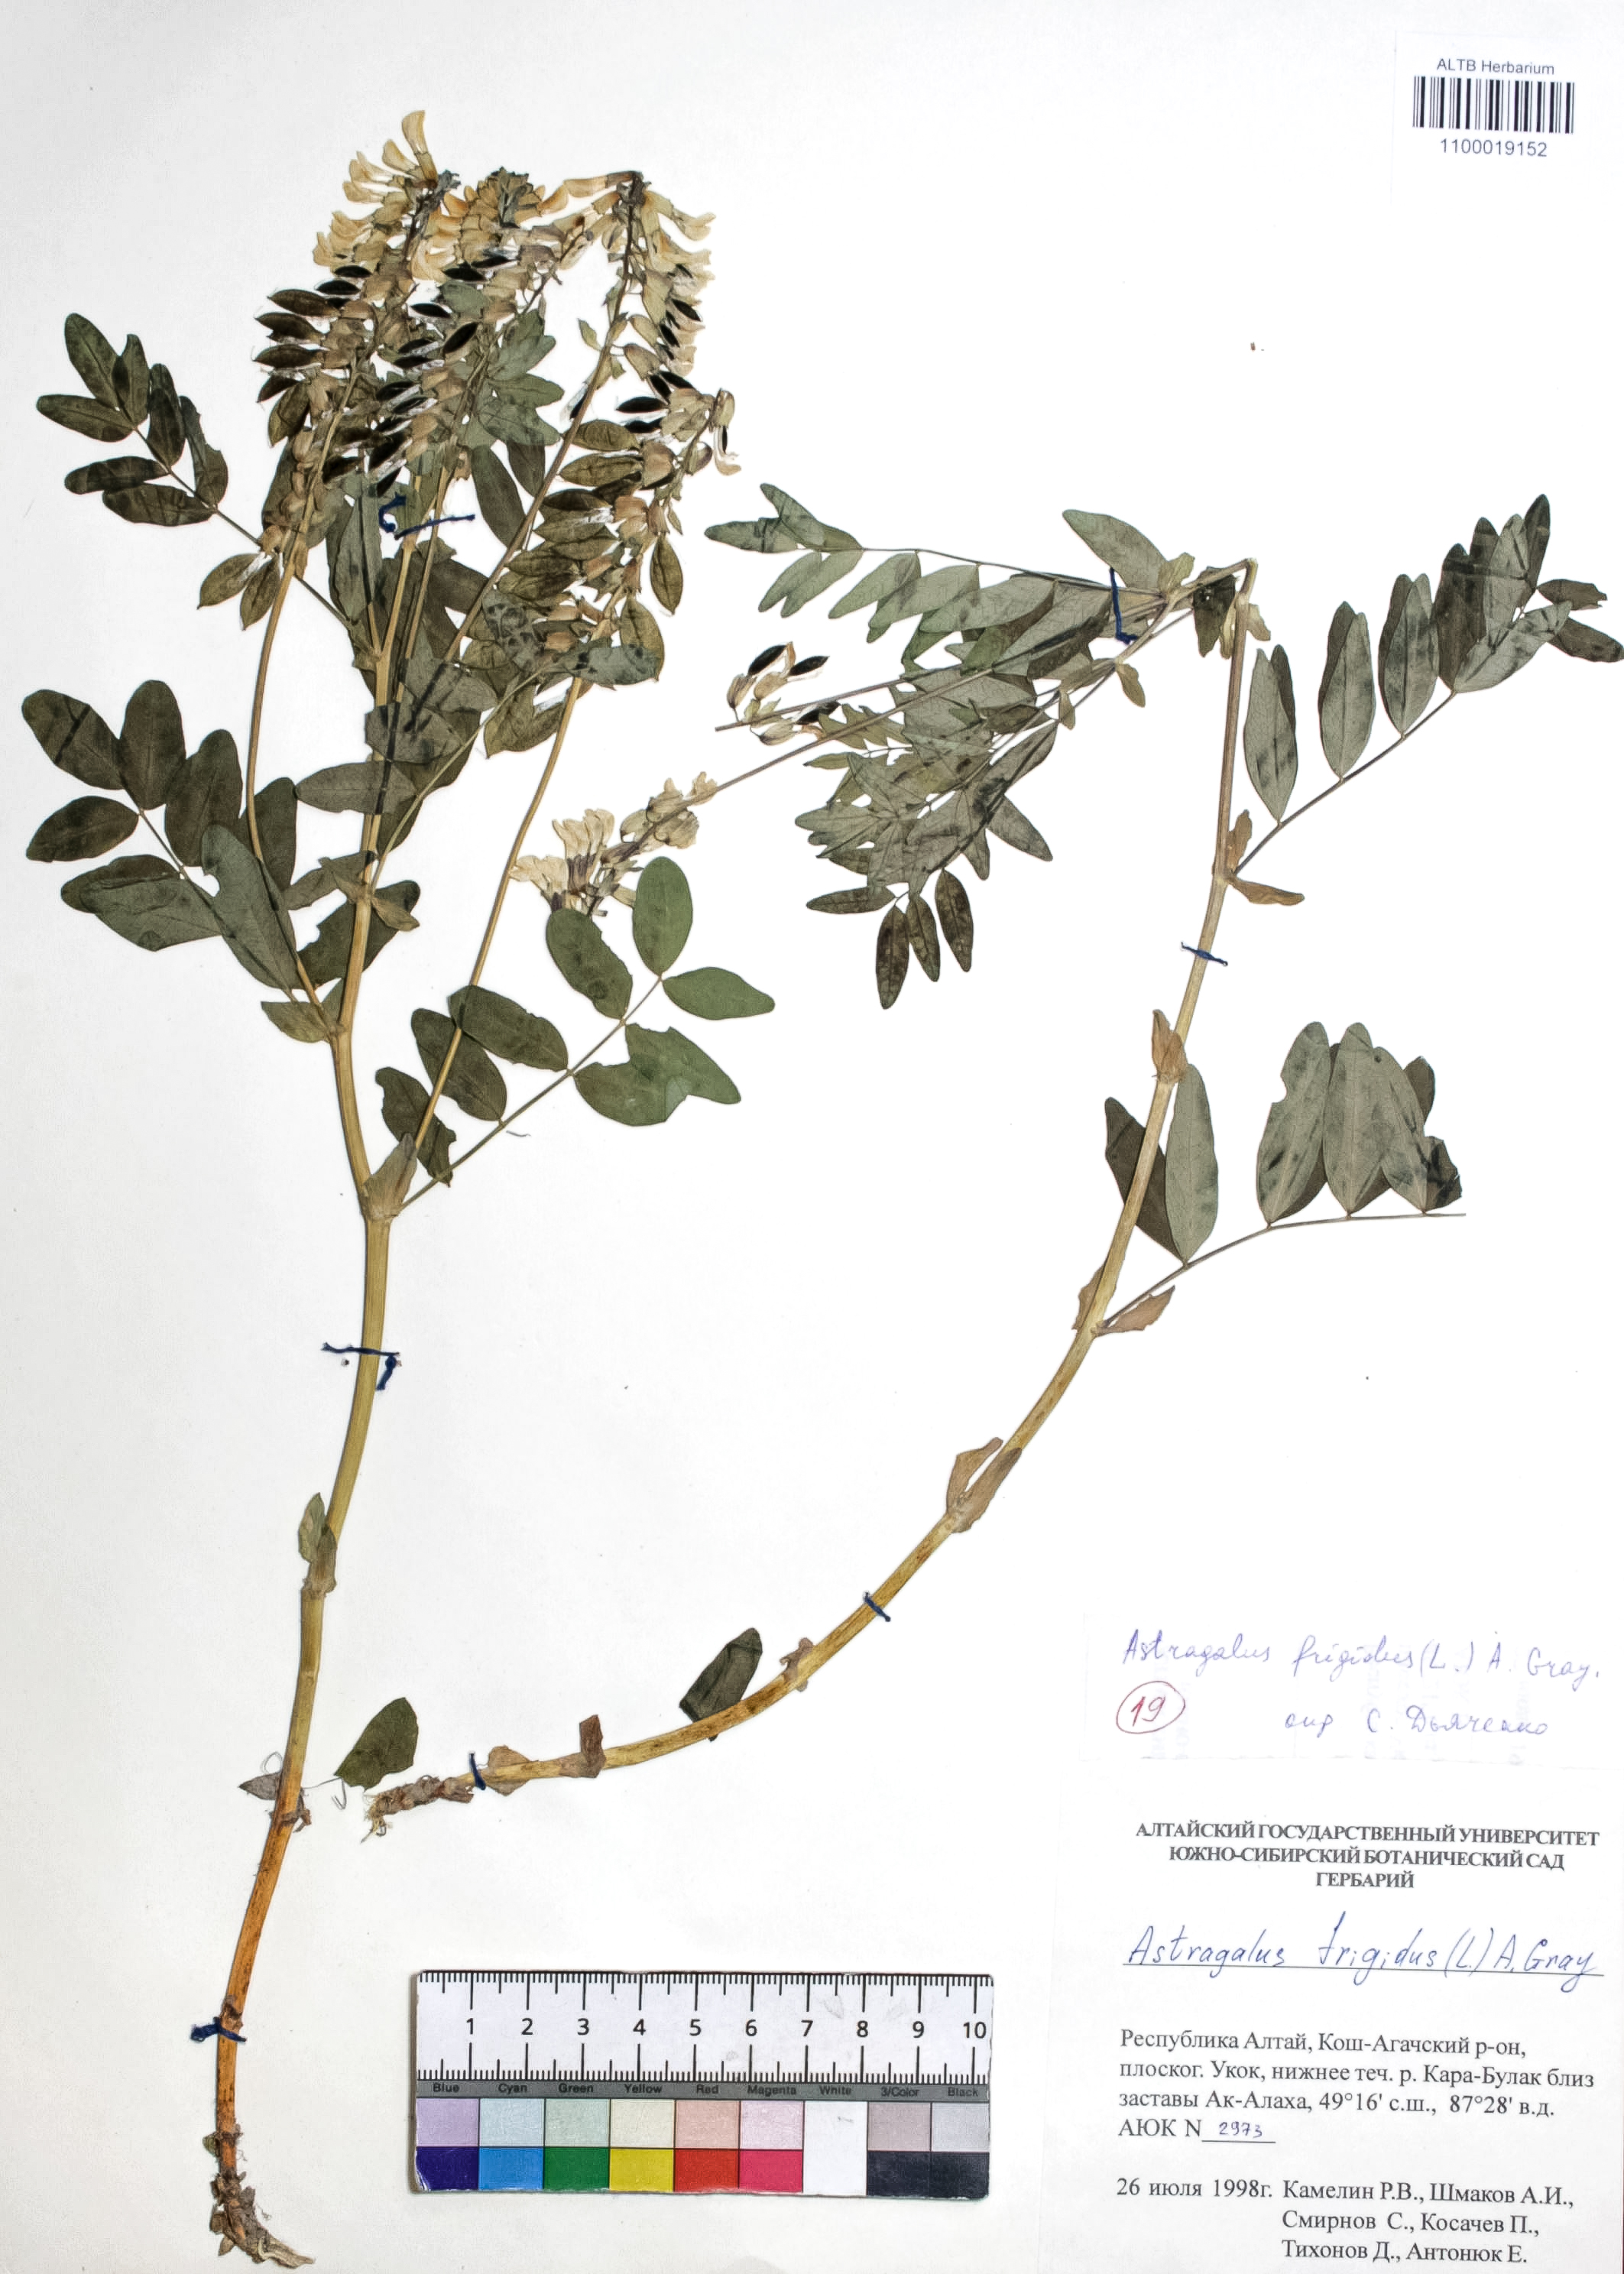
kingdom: Plantae
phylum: Tracheophyta
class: Magnoliopsida
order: Fabales
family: Fabaceae
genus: Astragalus
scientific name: Astragalus frigidus
